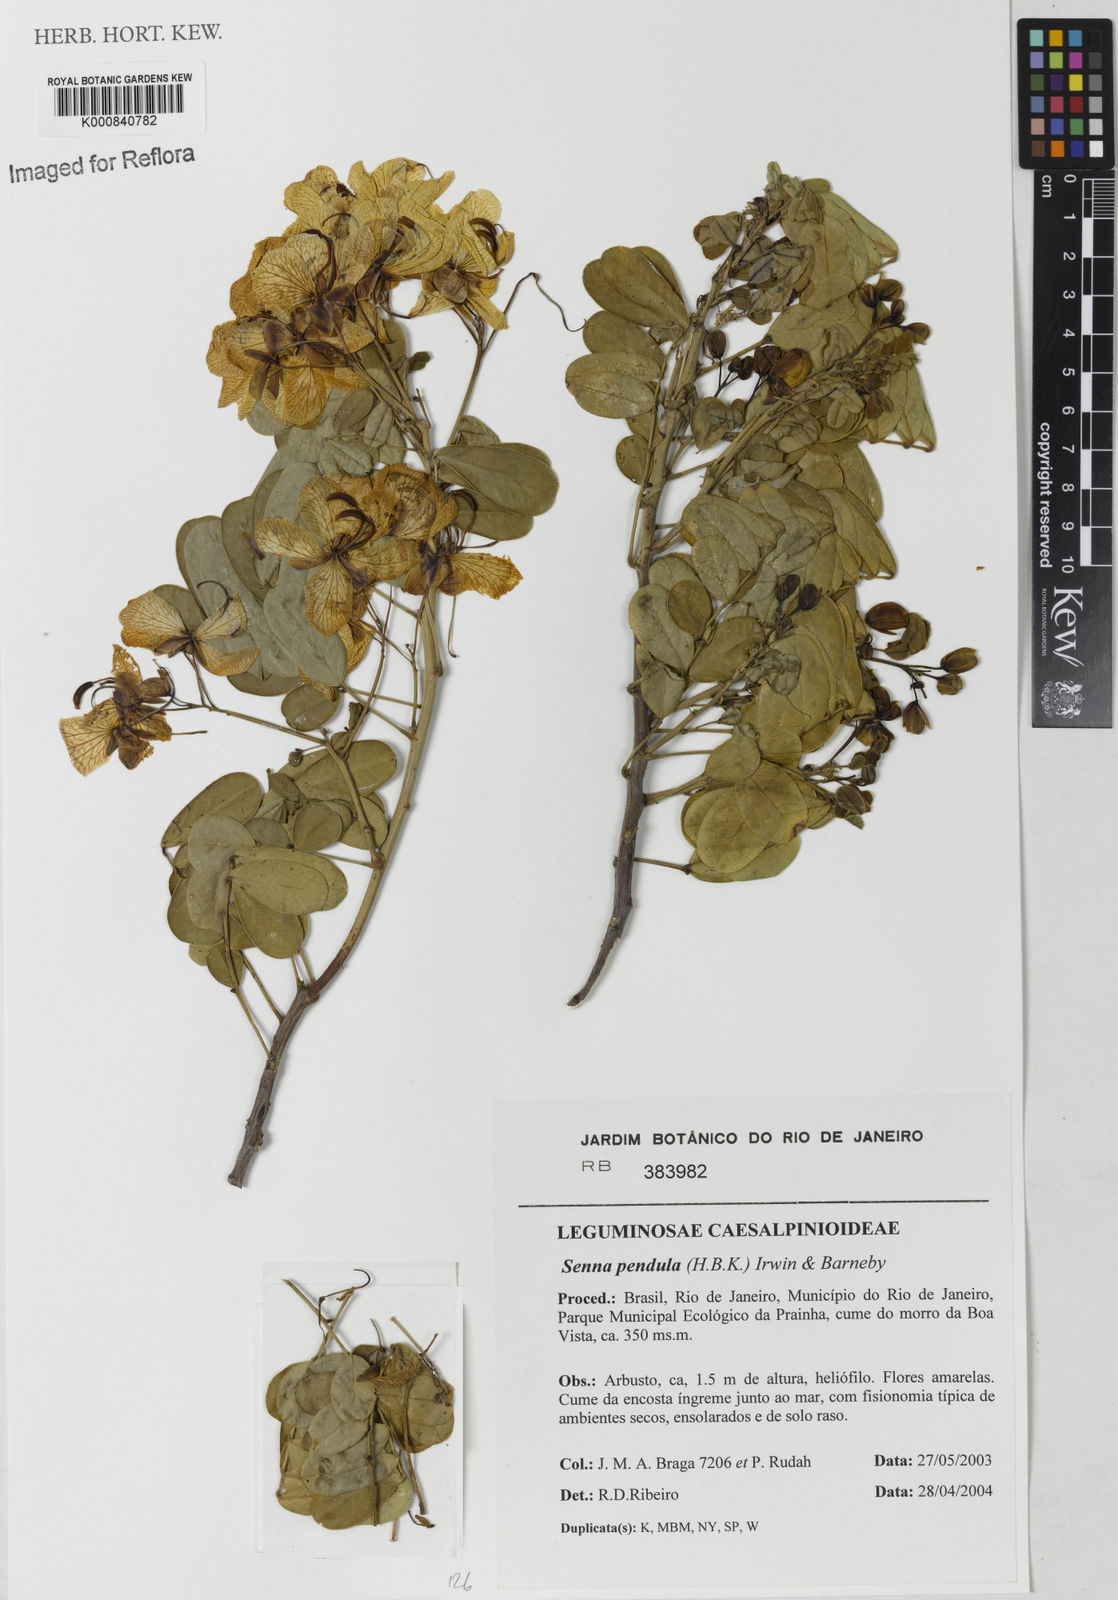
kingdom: Plantae
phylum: Tracheophyta
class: Magnoliopsida
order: Fabales
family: Fabaceae
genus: Senna
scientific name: Senna pendula
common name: Easter cassia
